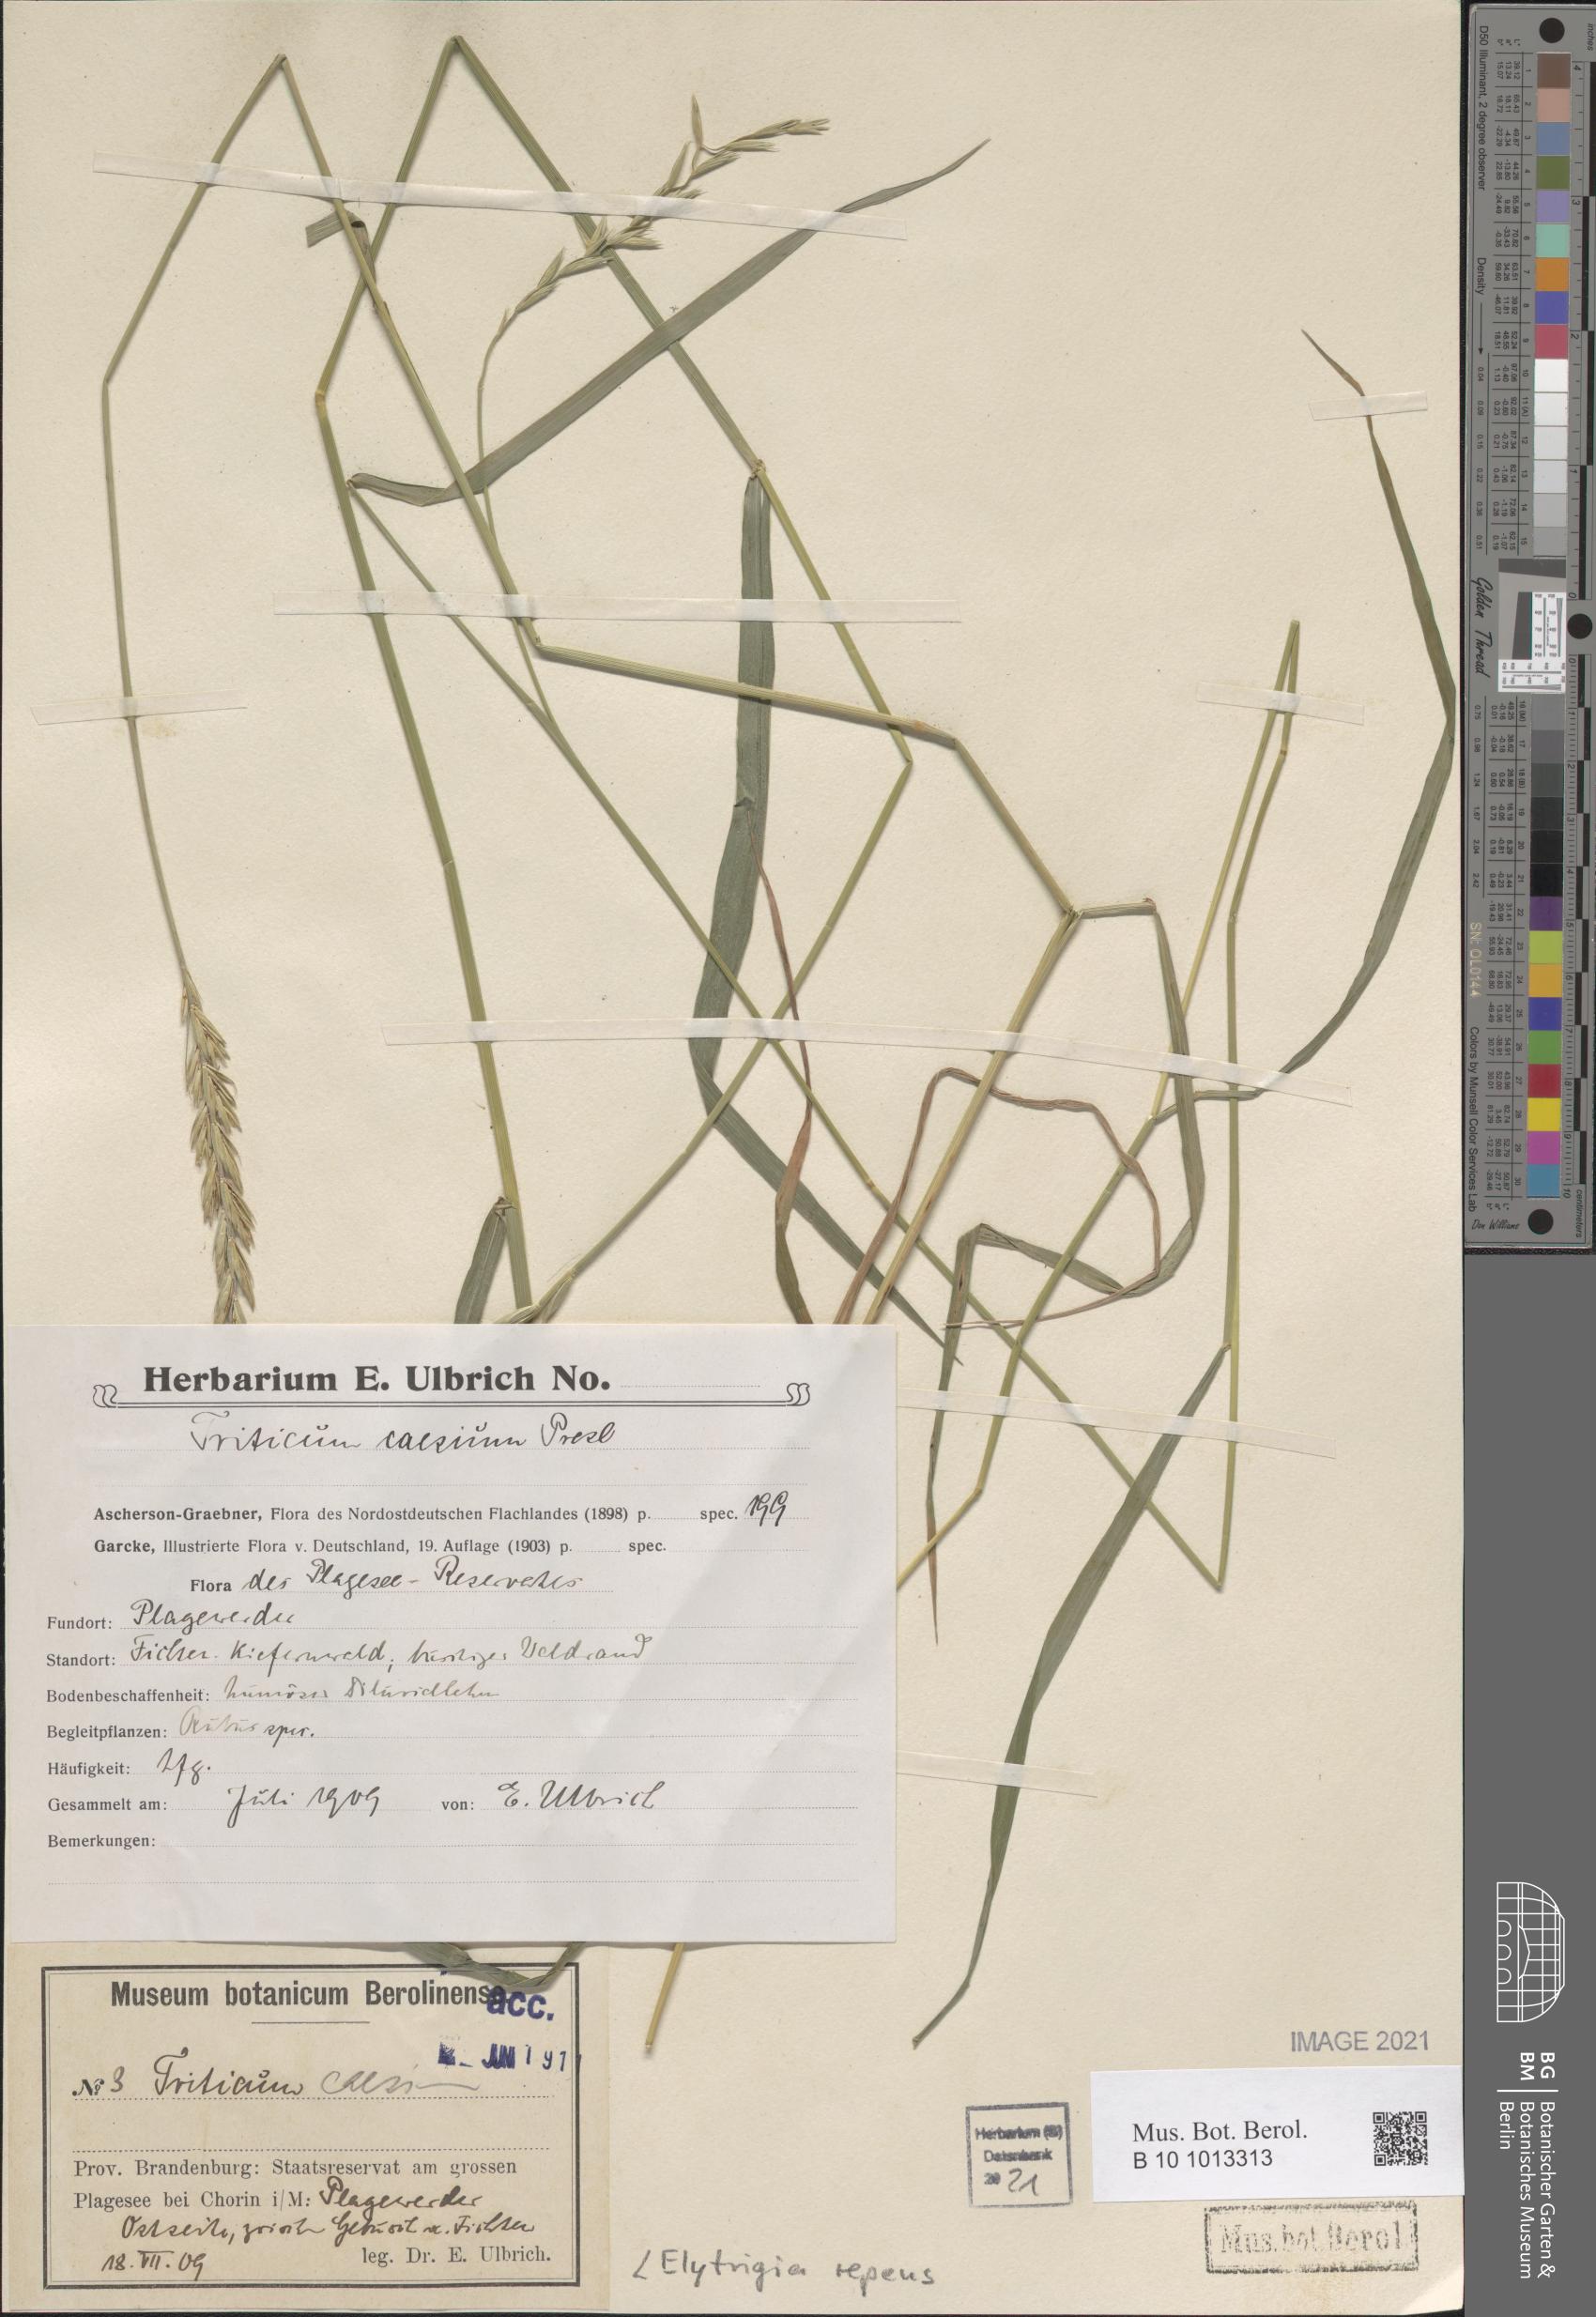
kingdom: Plantae
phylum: Tracheophyta
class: Liliopsida
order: Poales
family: Poaceae
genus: Elymus
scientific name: Elymus repens
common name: Quackgrass
